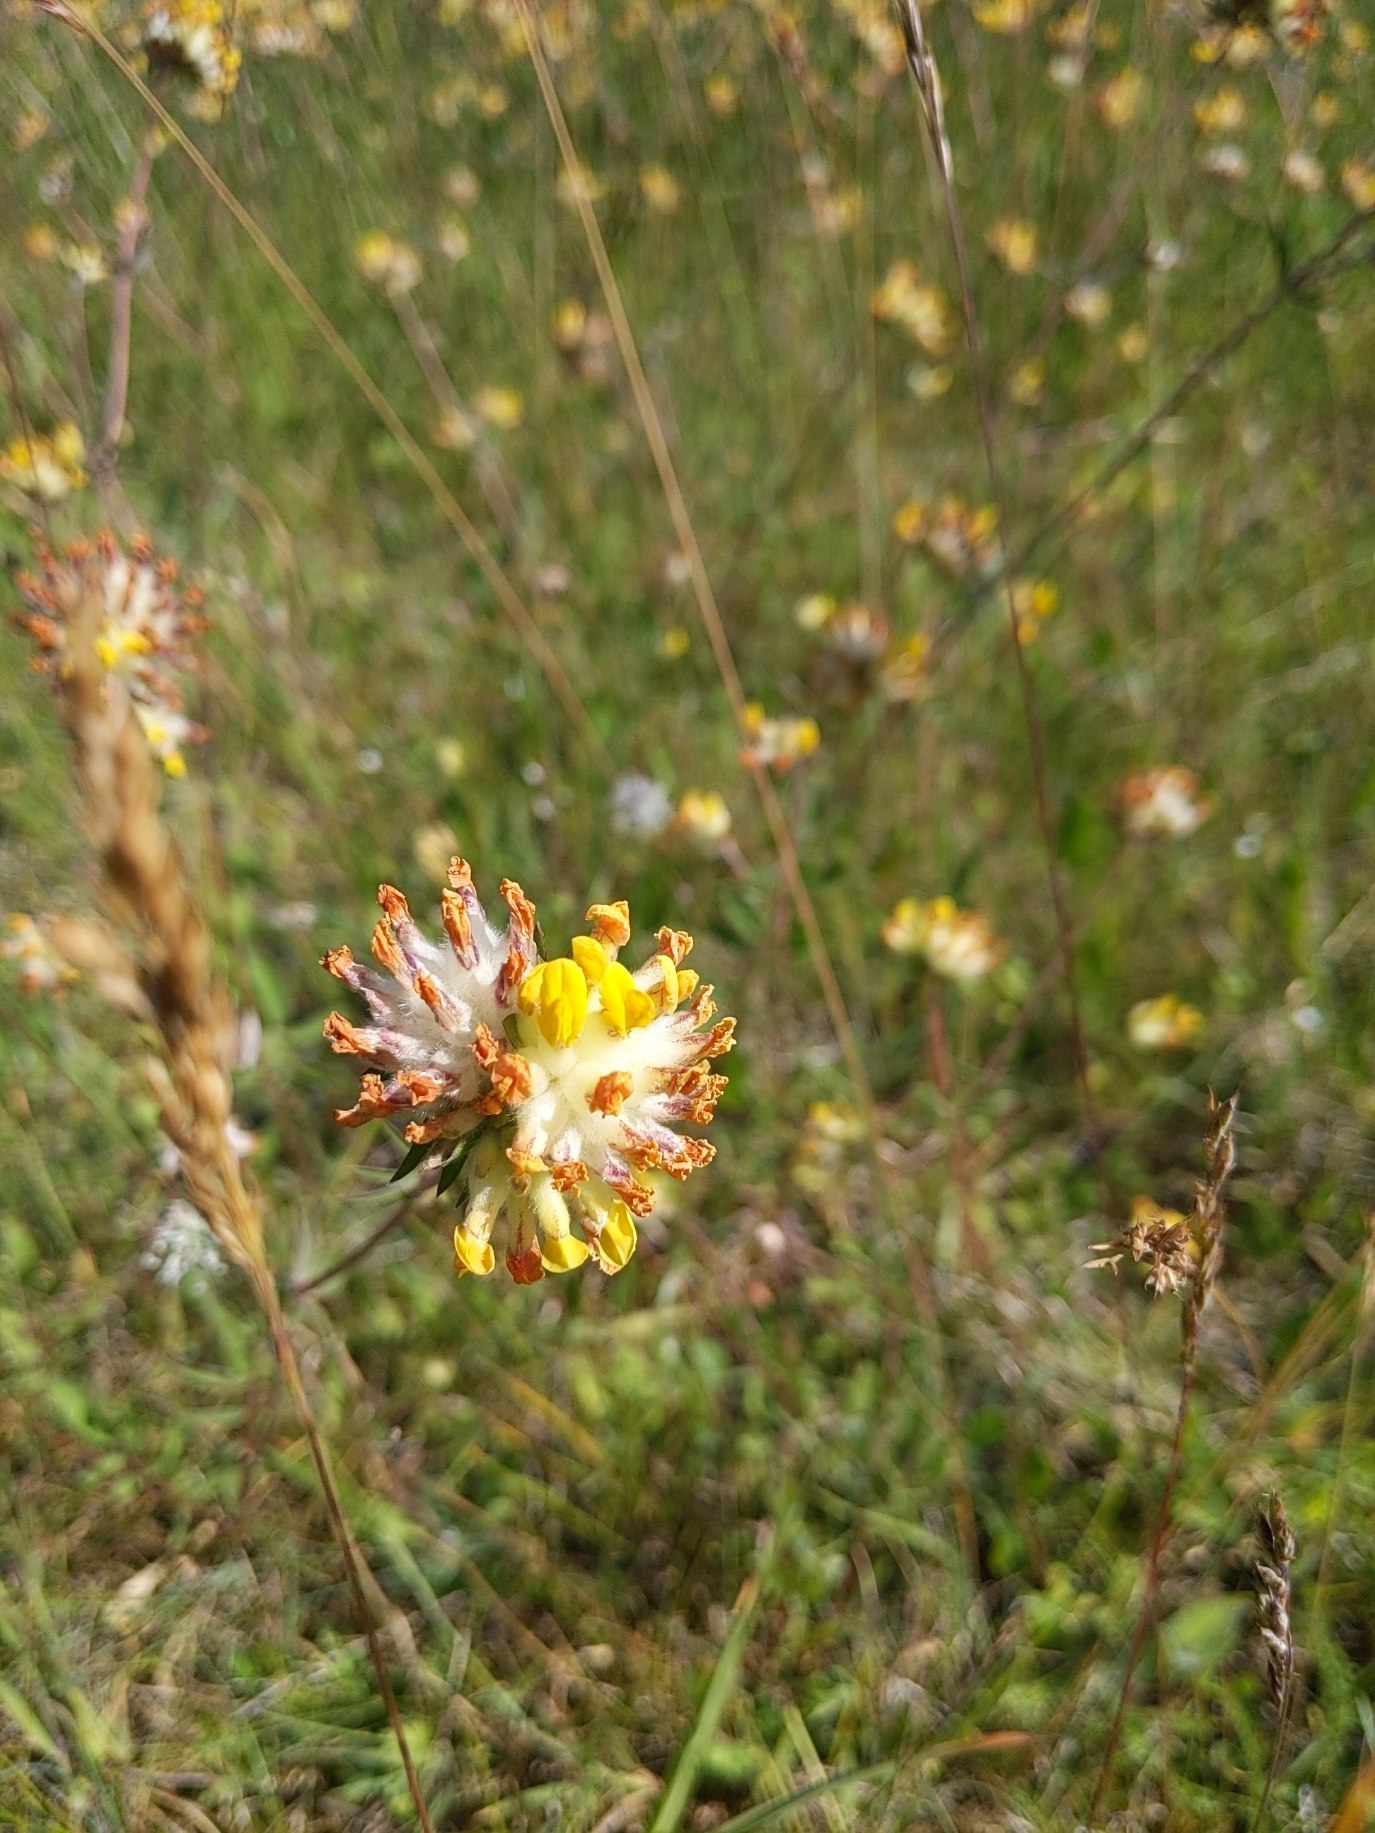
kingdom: Plantae
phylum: Tracheophyta
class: Magnoliopsida
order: Fabales
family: Fabaceae
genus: Anthyllis
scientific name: Anthyllis vulneraria
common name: Rundbælg
